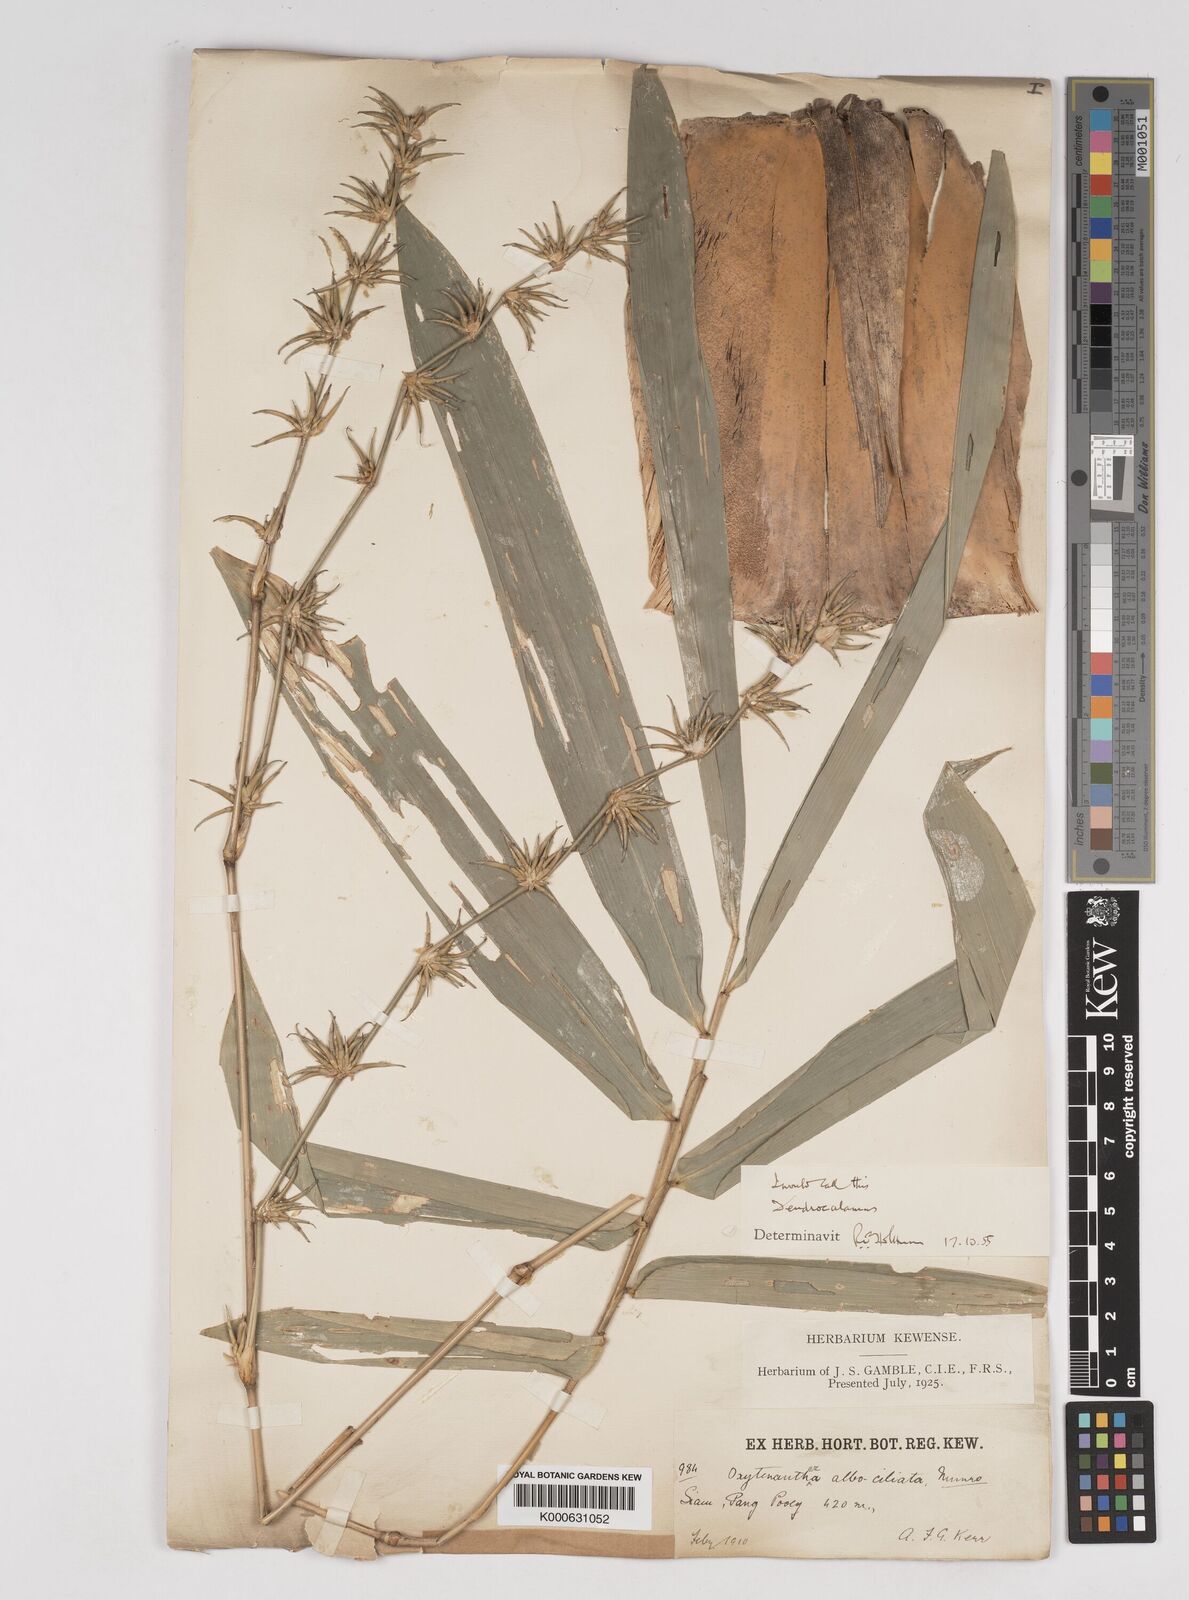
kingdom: Plantae
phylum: Tracheophyta
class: Liliopsida
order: Poales
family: Poaceae
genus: Gigantochloa
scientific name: Gigantochloa albociliata
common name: White-fringe gigantochloa
